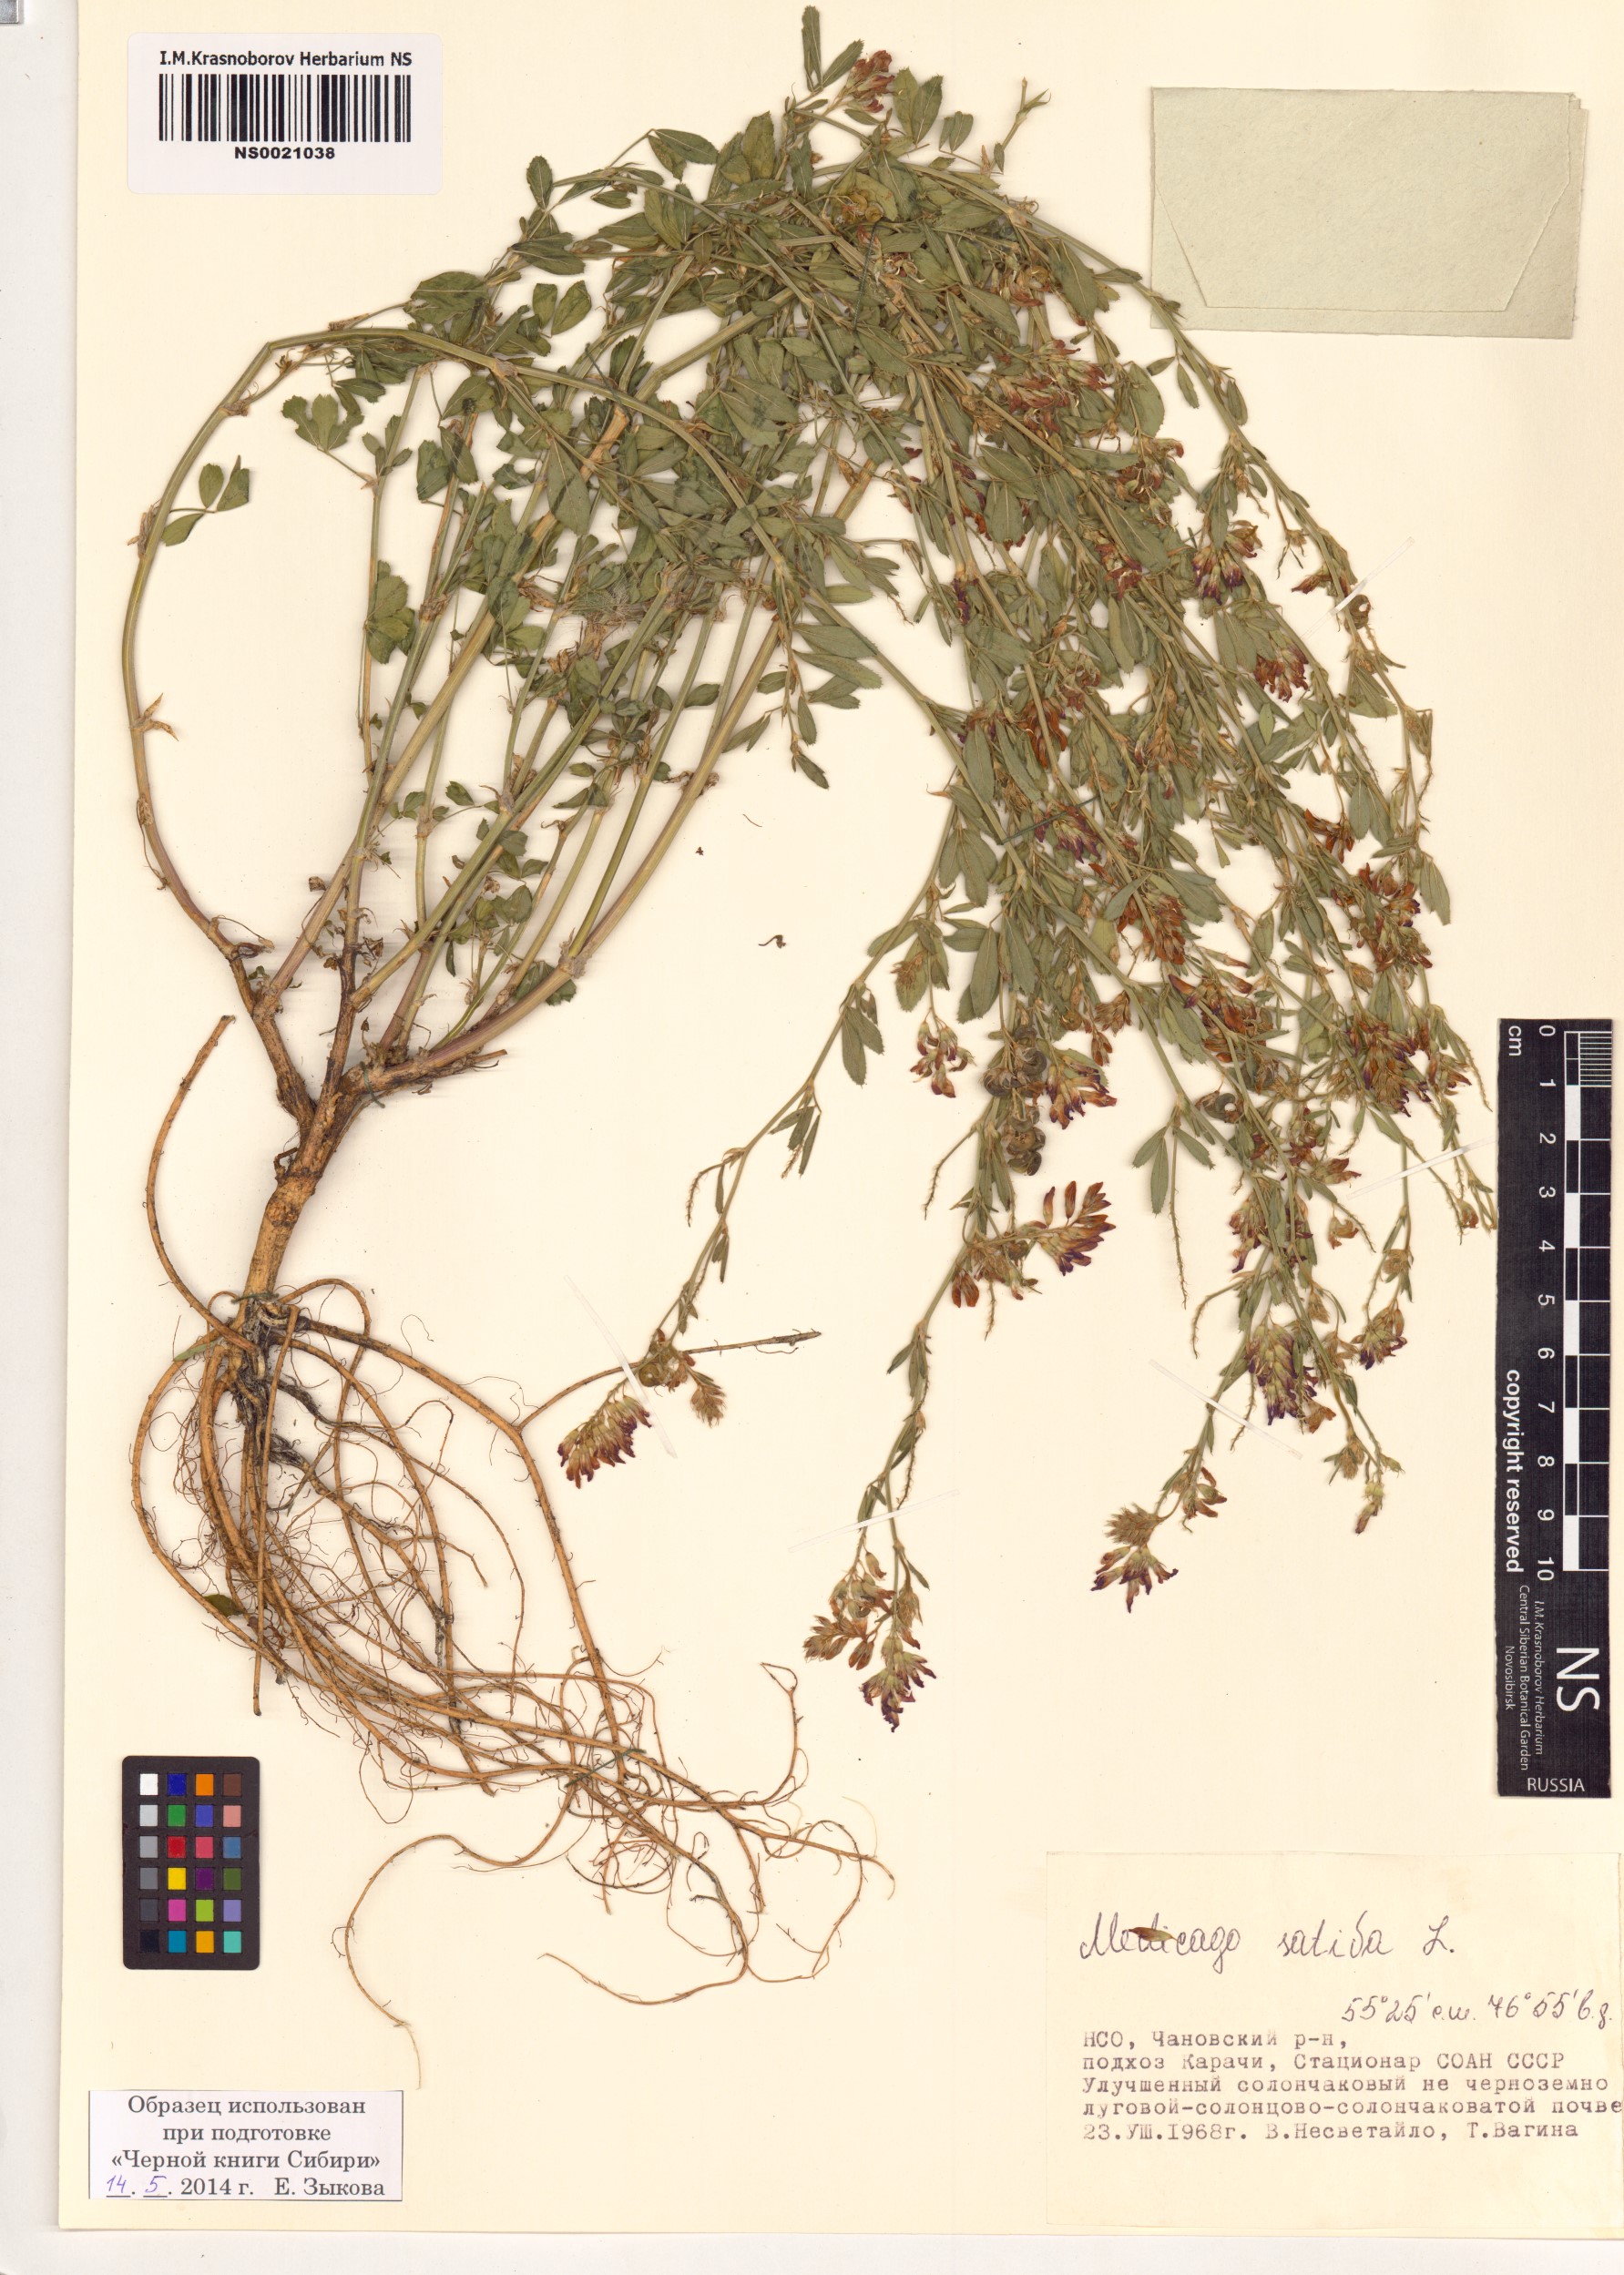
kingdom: Plantae
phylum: Tracheophyta
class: Magnoliopsida
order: Fabales
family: Fabaceae
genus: Medicago
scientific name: Medicago sativa
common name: Alfalfa
